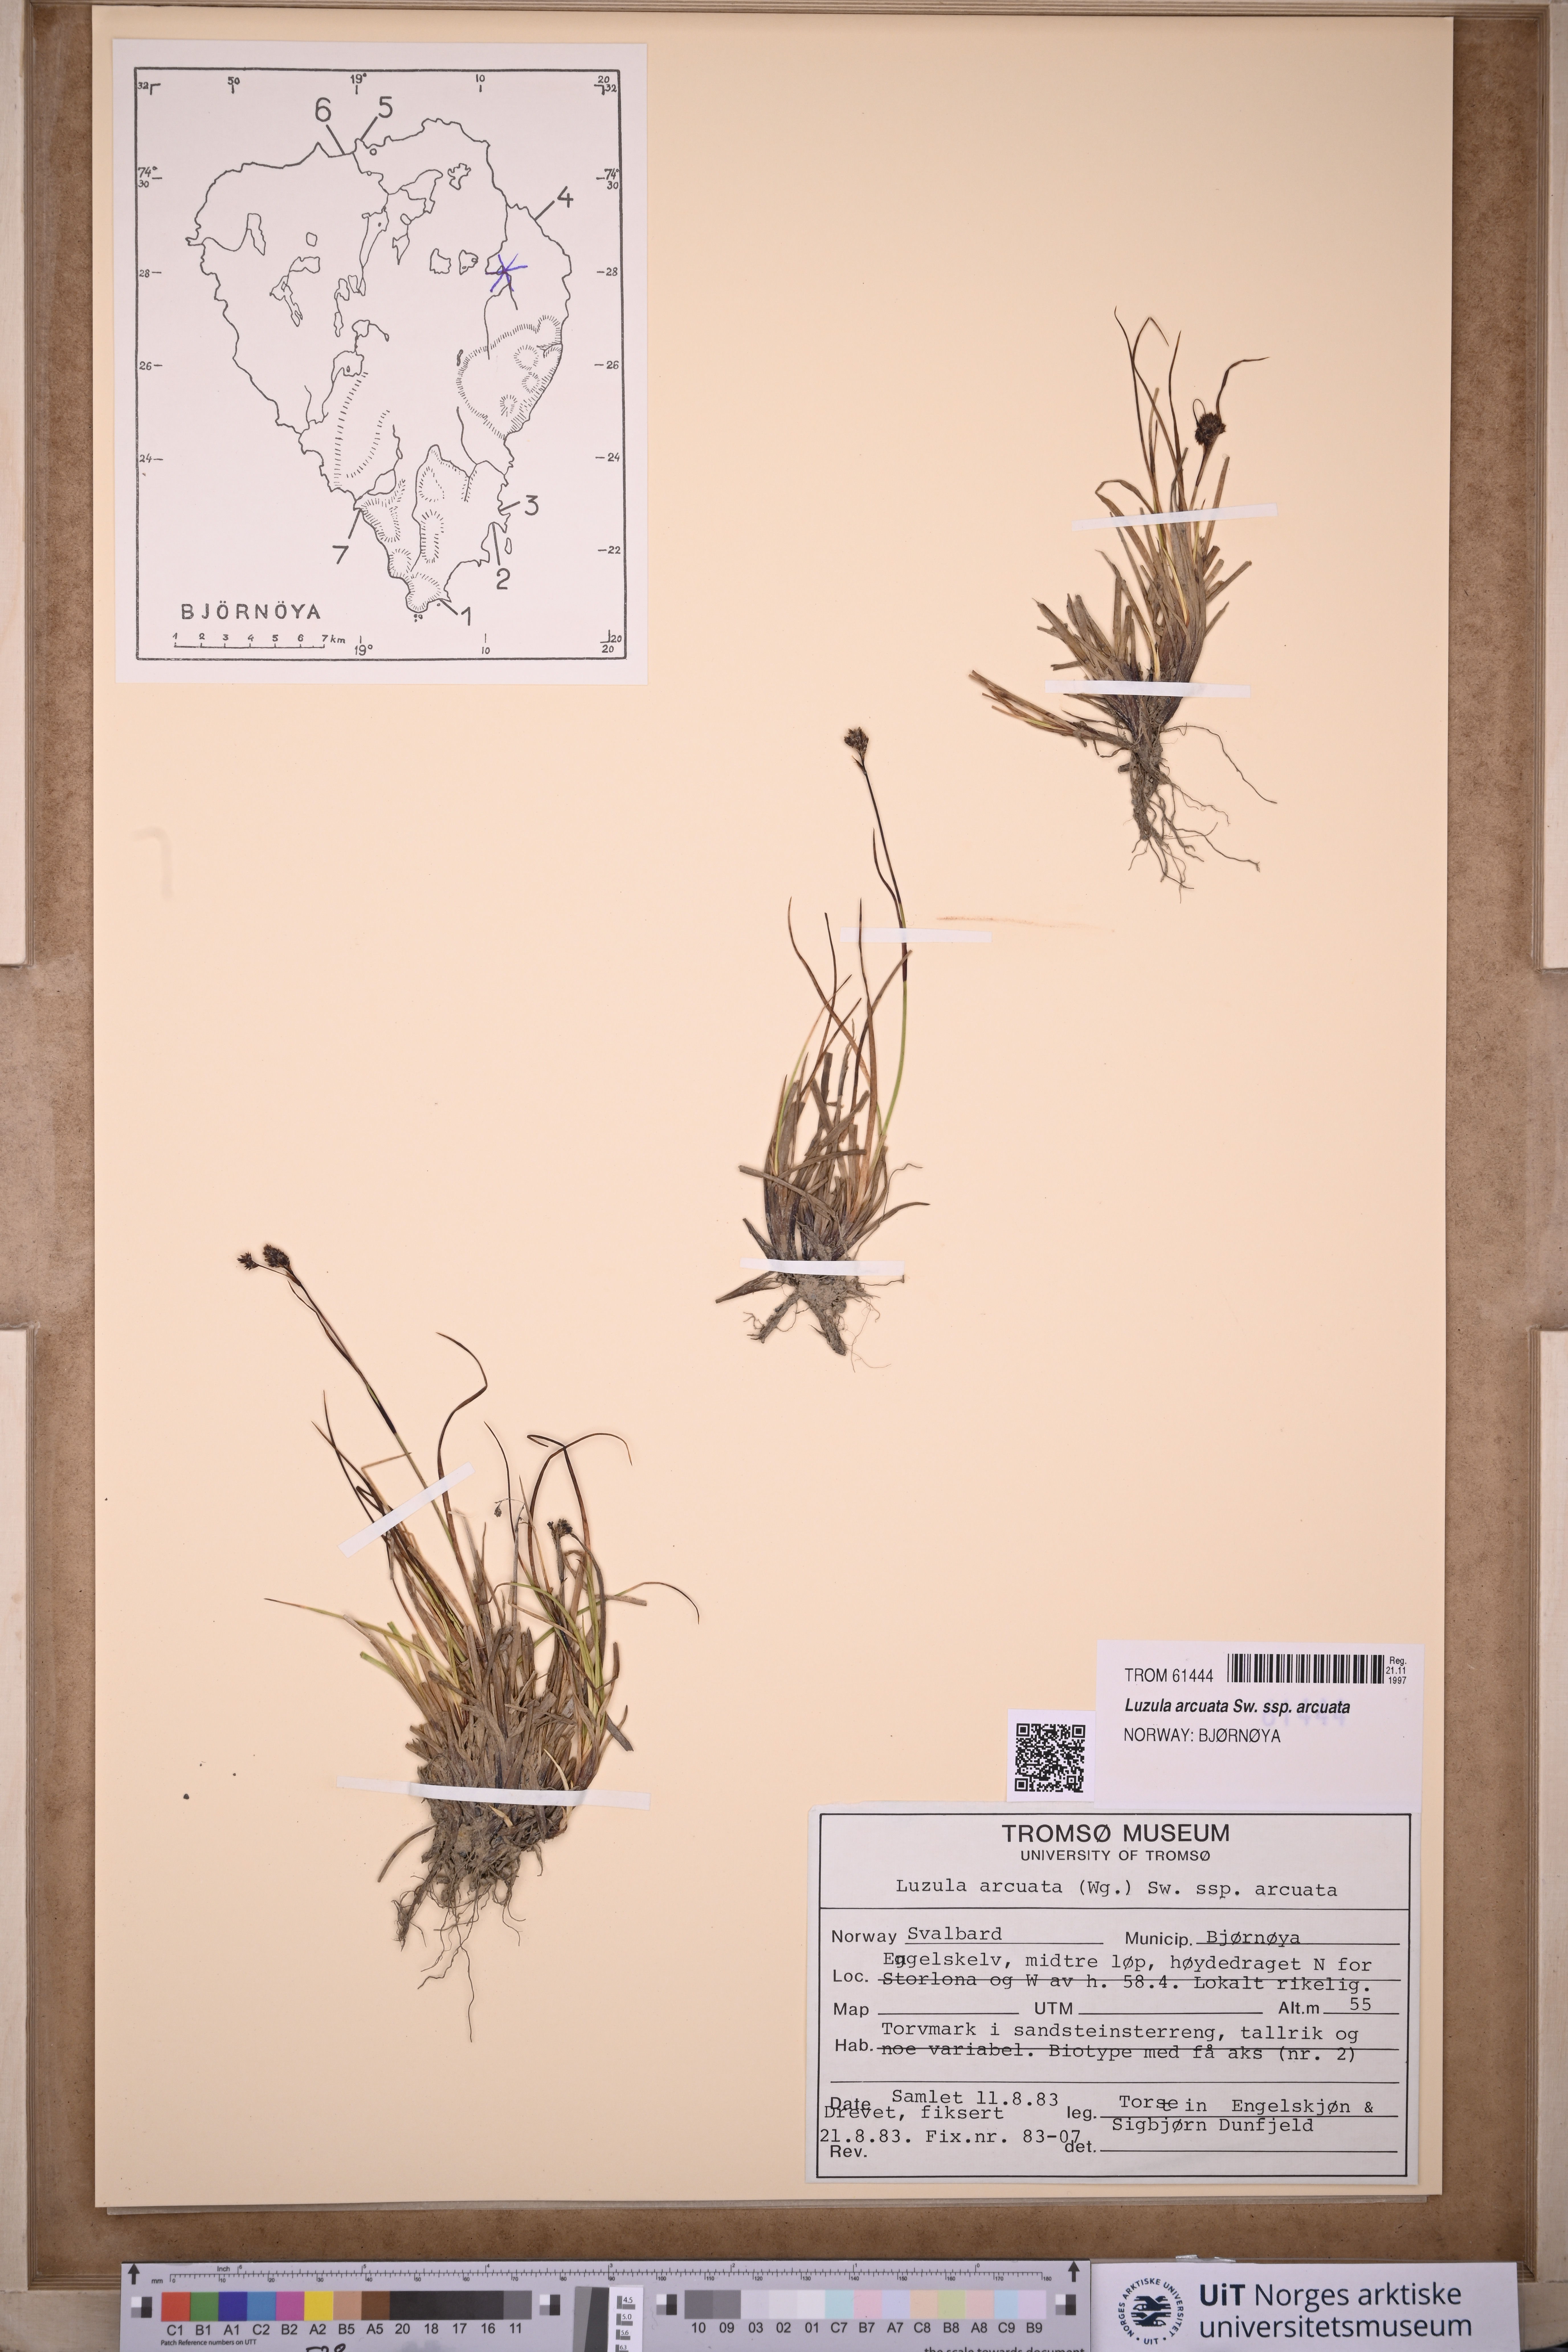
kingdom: Plantae
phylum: Tracheophyta
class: Liliopsida
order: Poales
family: Juncaceae
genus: Luzula
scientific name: Luzula arcuata
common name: Curved wood-rush
